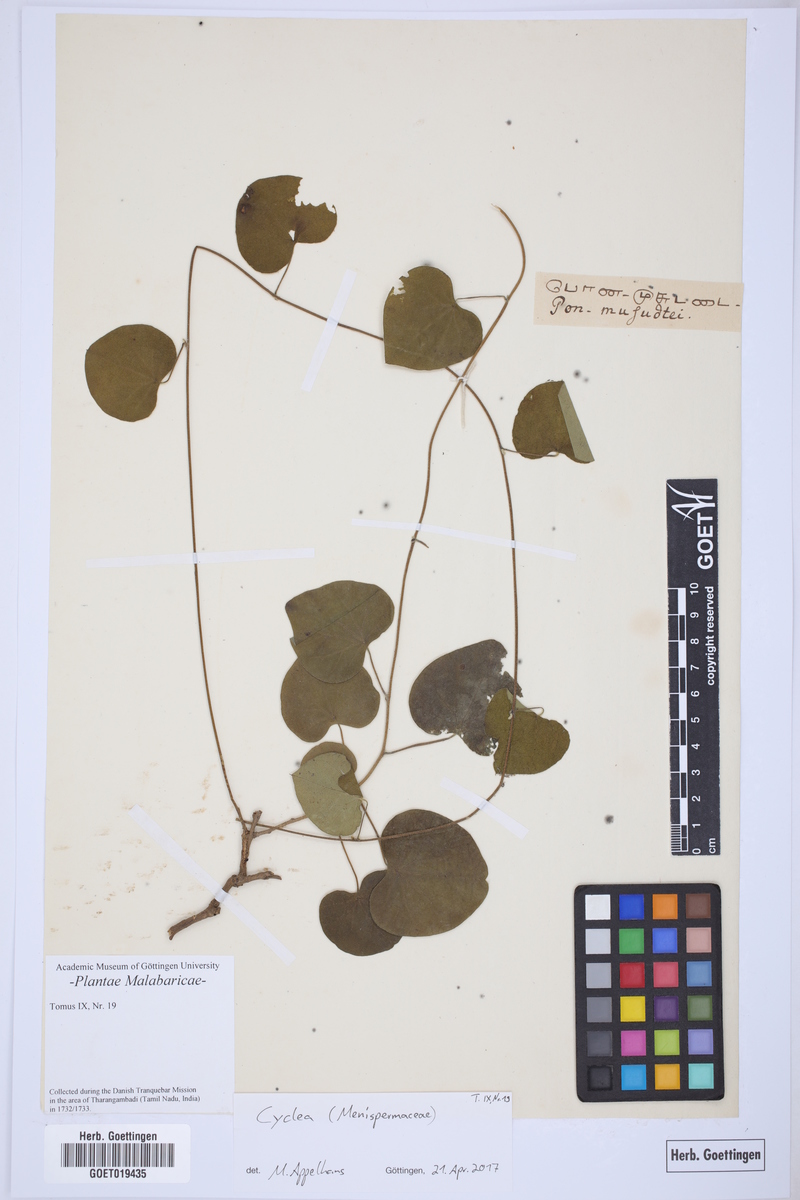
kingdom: Plantae
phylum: Tracheophyta
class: Magnoliopsida
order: Ranunculales
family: Menispermaceae
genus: Cyclea
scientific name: Cyclea
